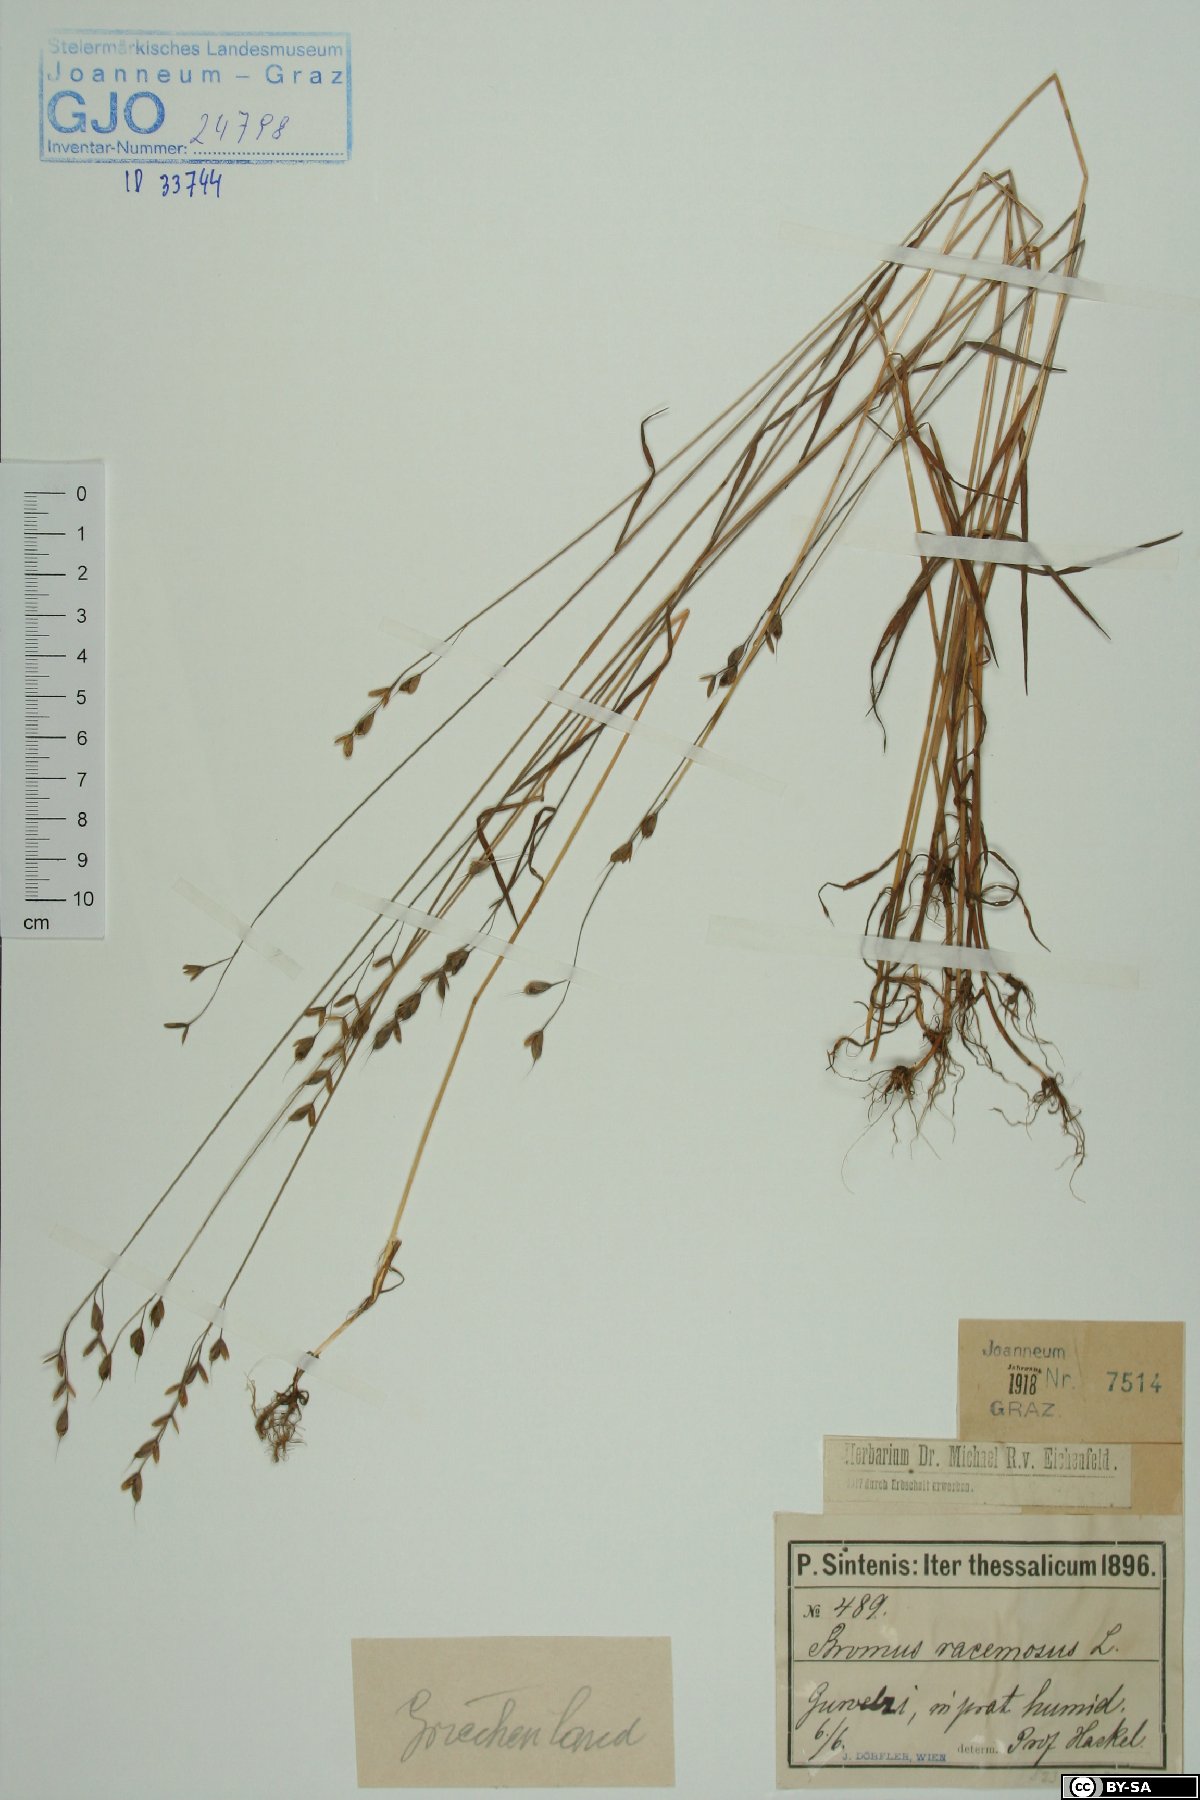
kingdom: Plantae
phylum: Tracheophyta
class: Liliopsida
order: Poales
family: Poaceae
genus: Bromus
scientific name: Bromus racemosus
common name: Bald brome
